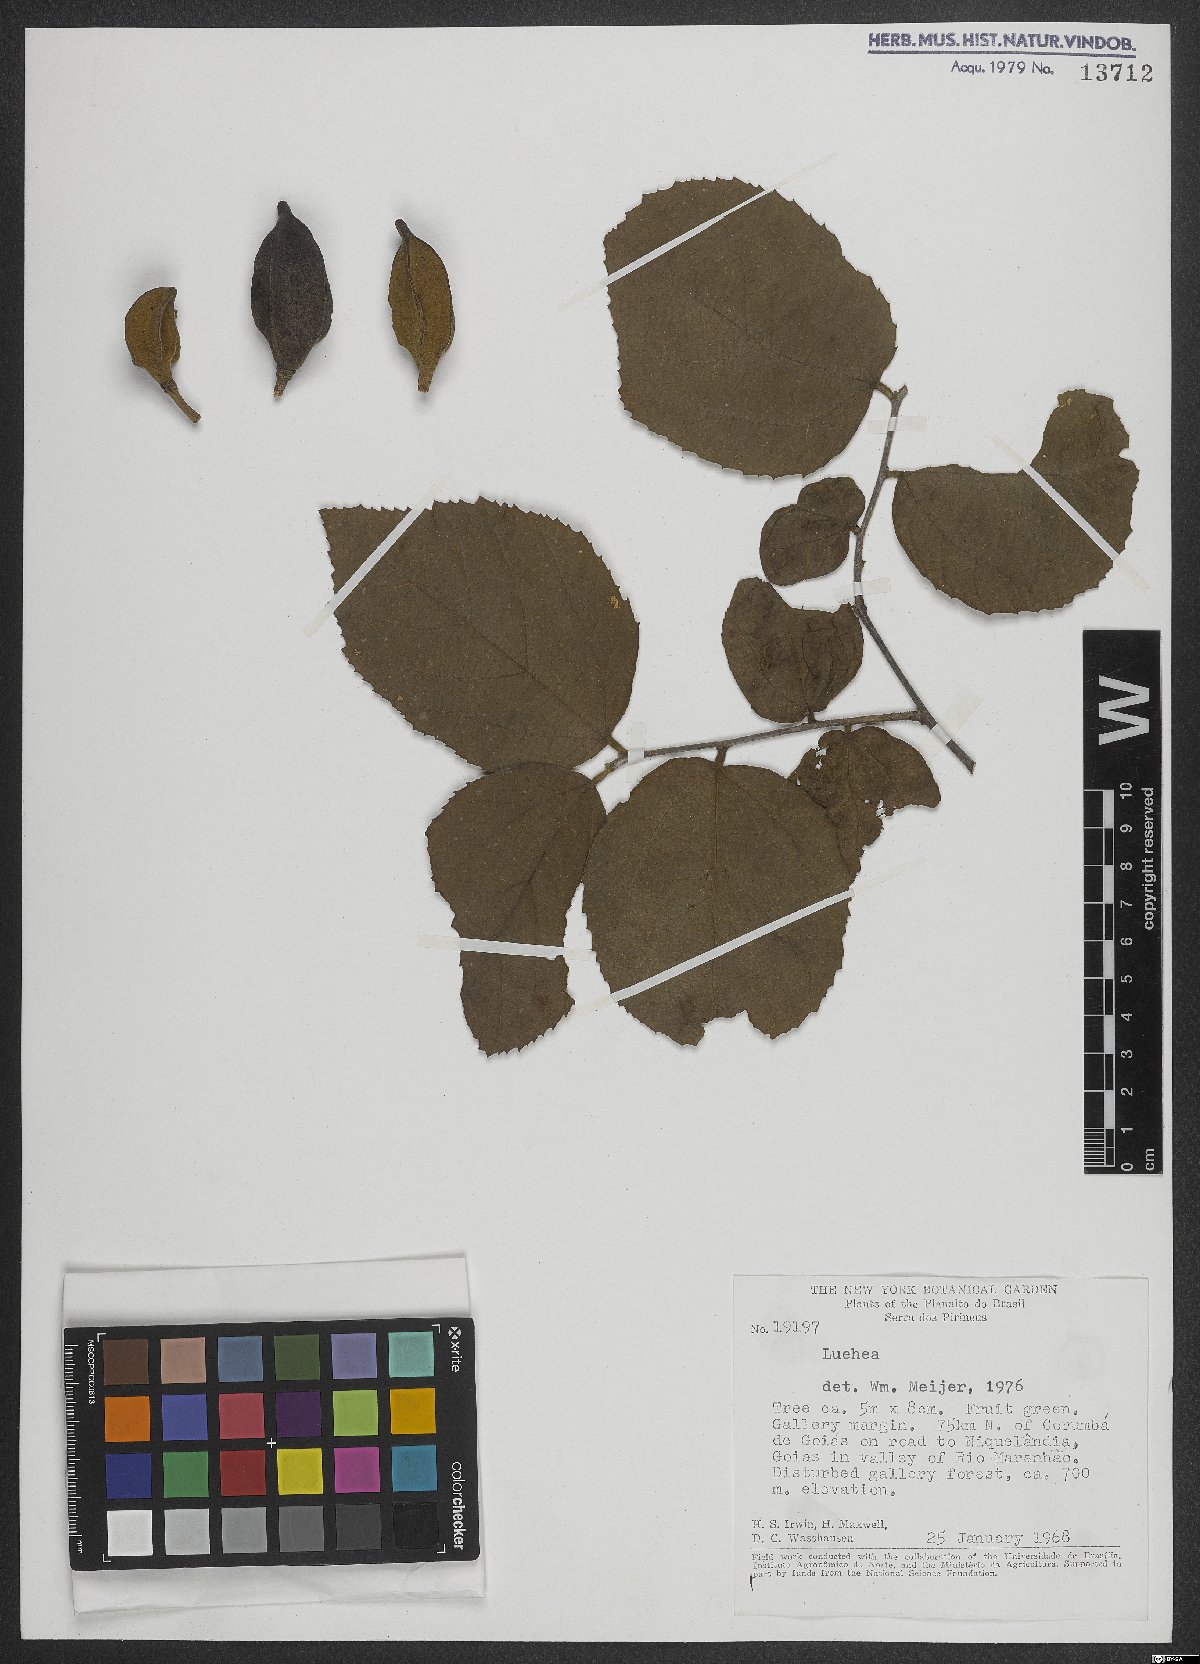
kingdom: Plantae
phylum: Tracheophyta
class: Magnoliopsida
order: Malvales
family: Malvaceae
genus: Luehea
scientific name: Luehea
